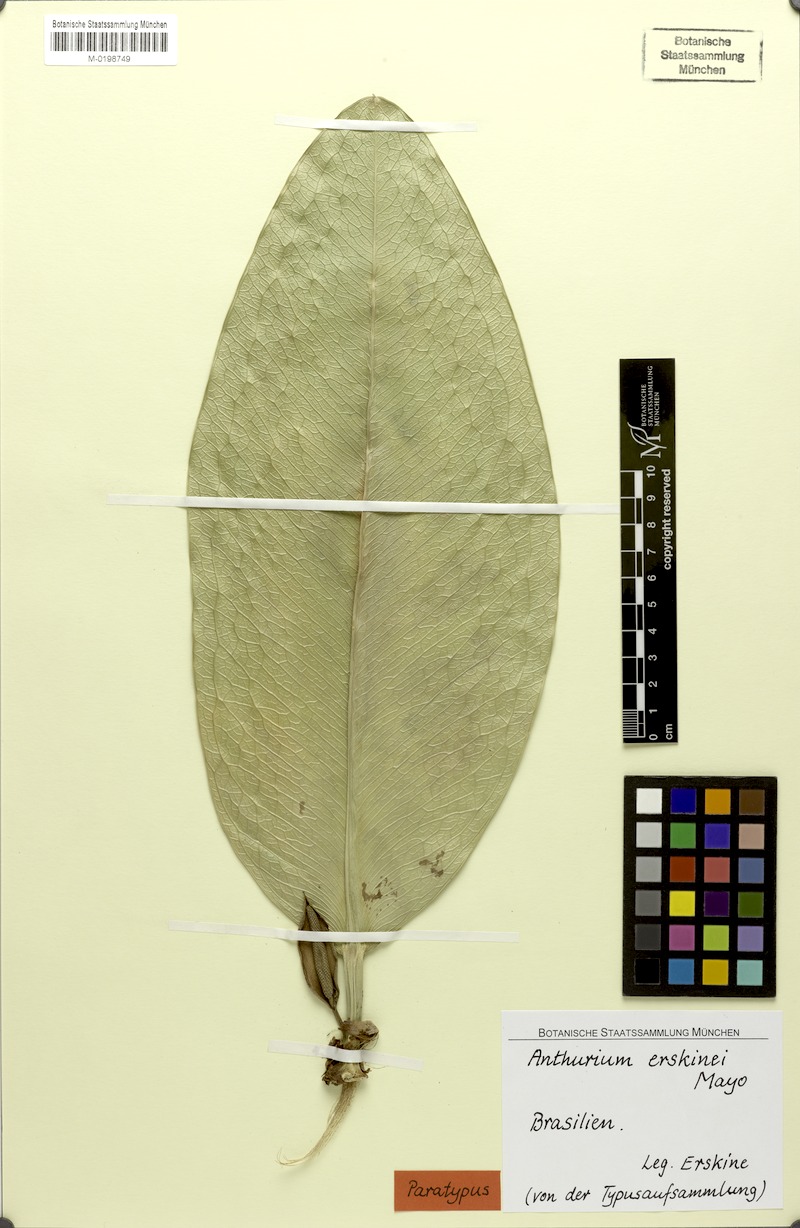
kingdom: Plantae
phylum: Tracheophyta
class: Liliopsida
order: Alismatales
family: Araceae
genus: Anthurium
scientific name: Anthurium erskinei
